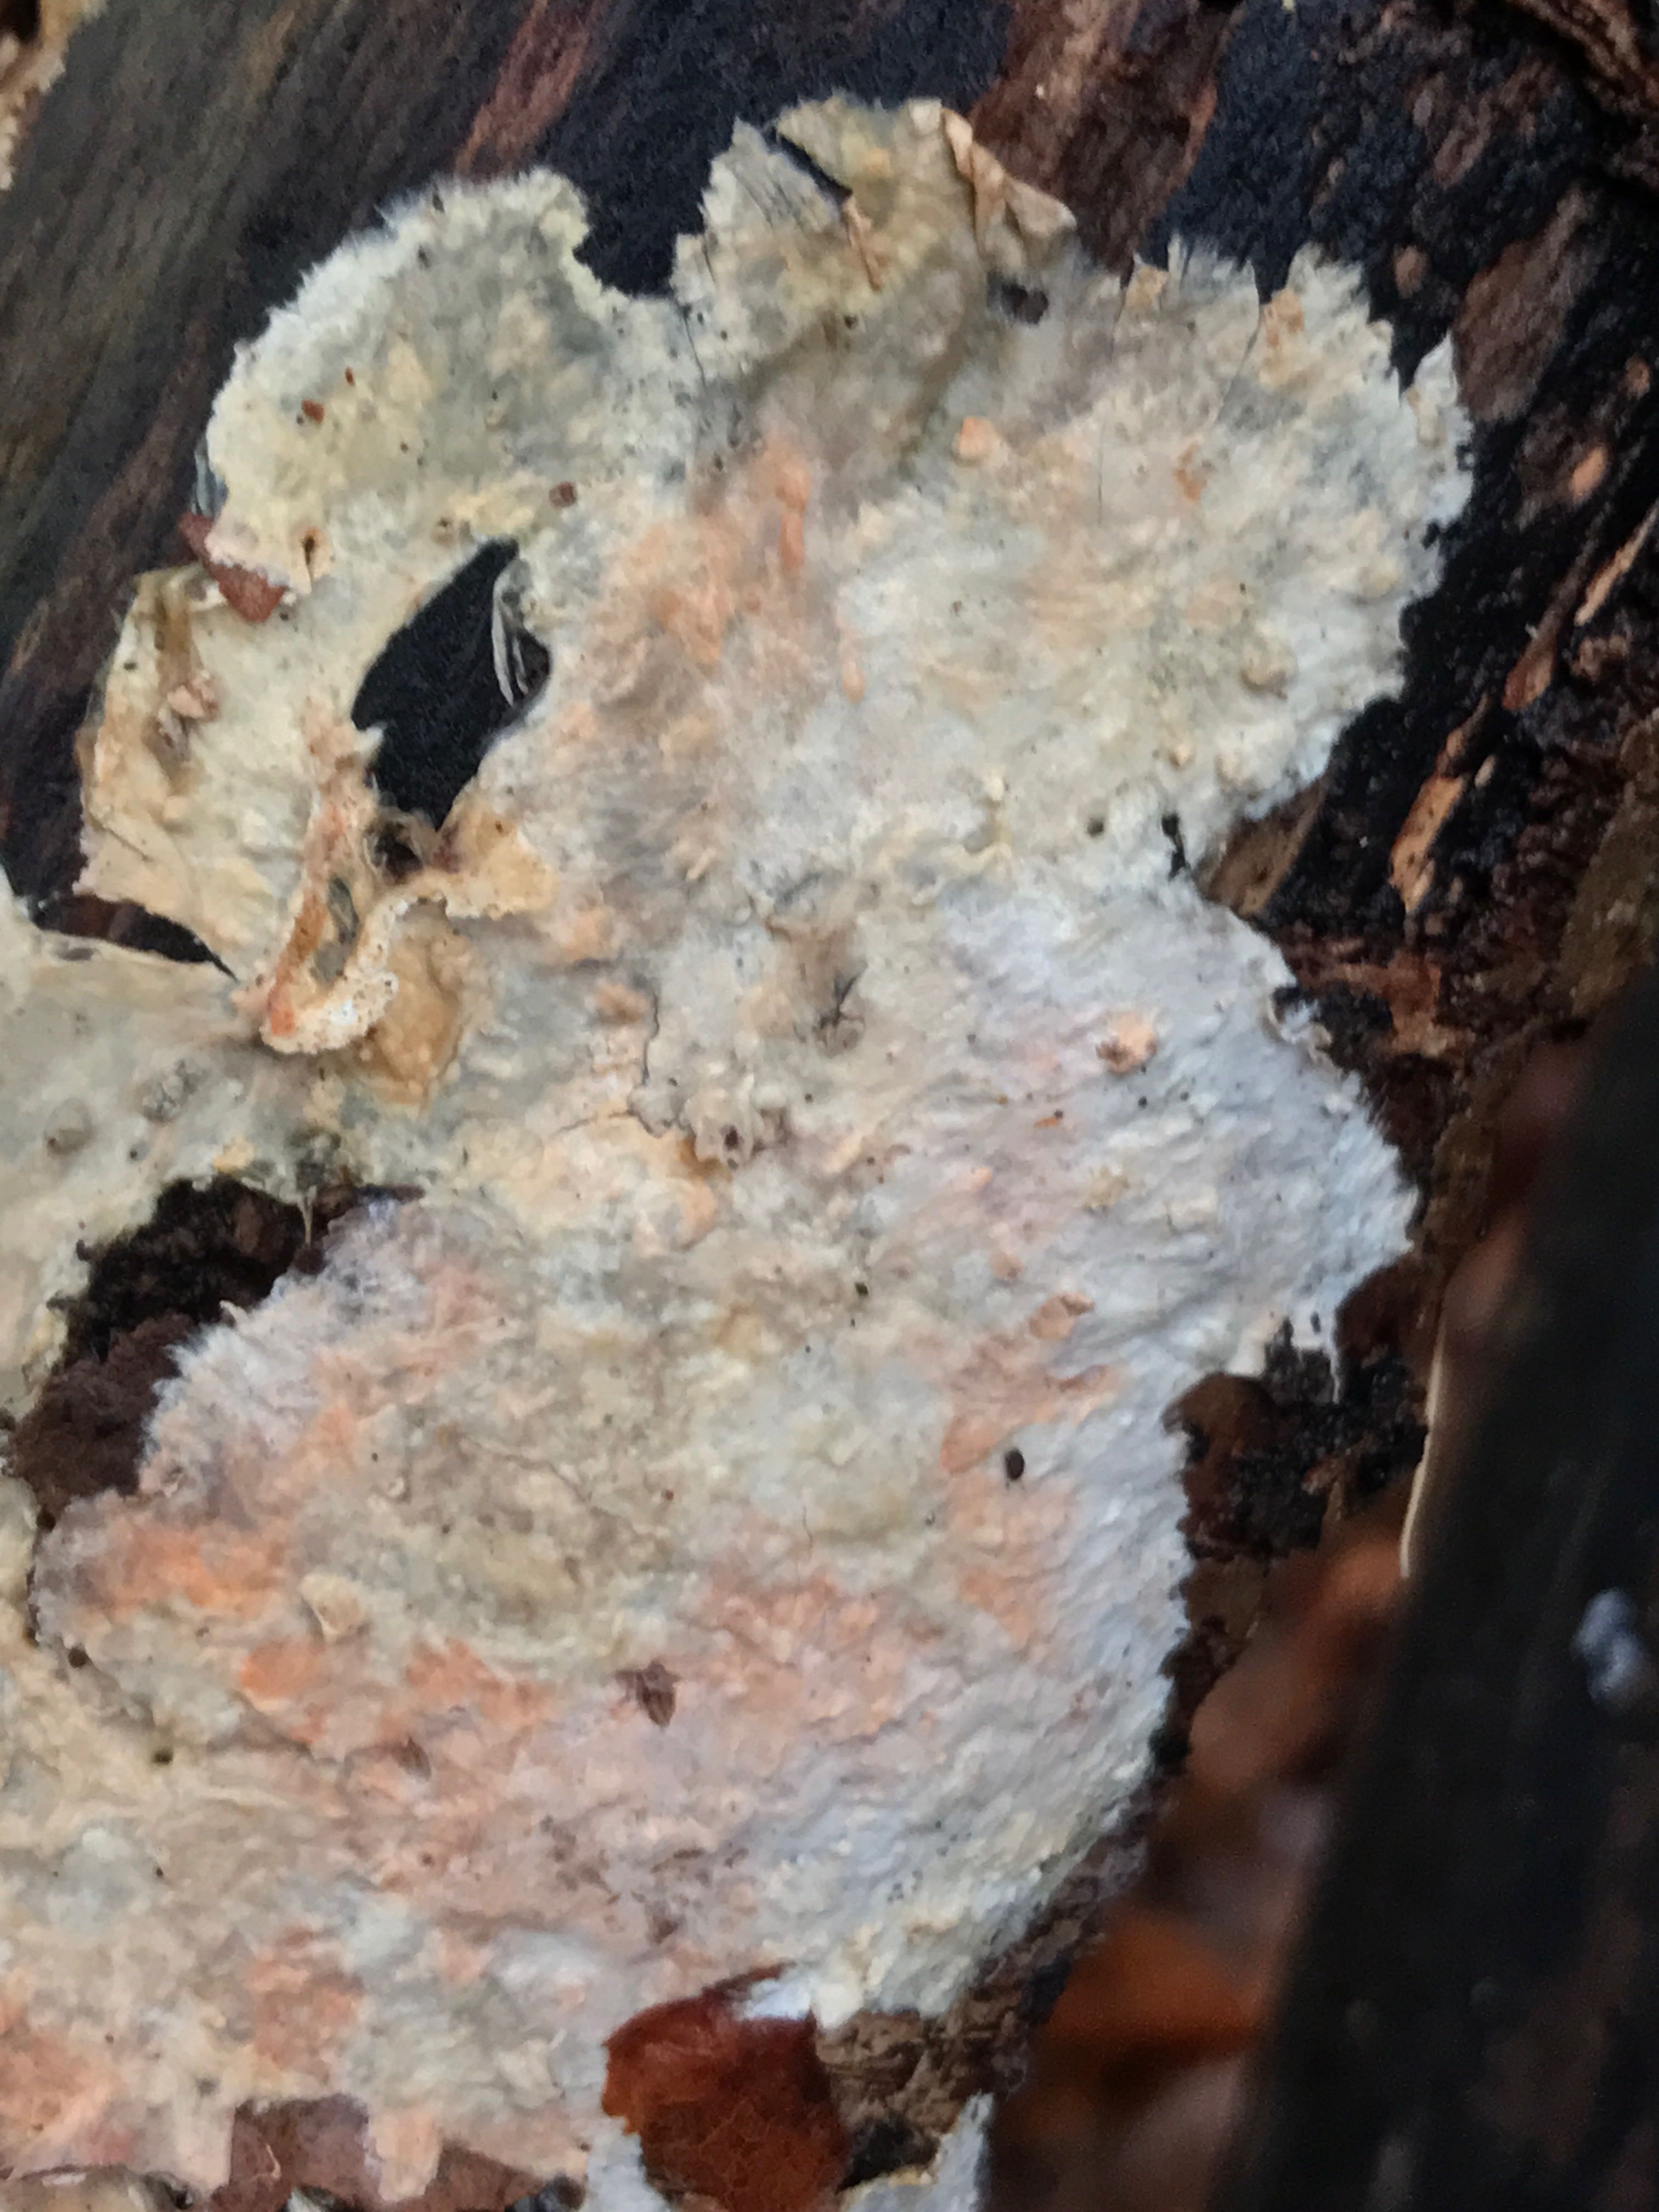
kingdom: Fungi
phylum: Basidiomycota
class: Agaricomycetes
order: Polyporales
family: Meruliaceae
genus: Phlebia
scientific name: Phlebia radiata
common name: stråle-åresvamp
